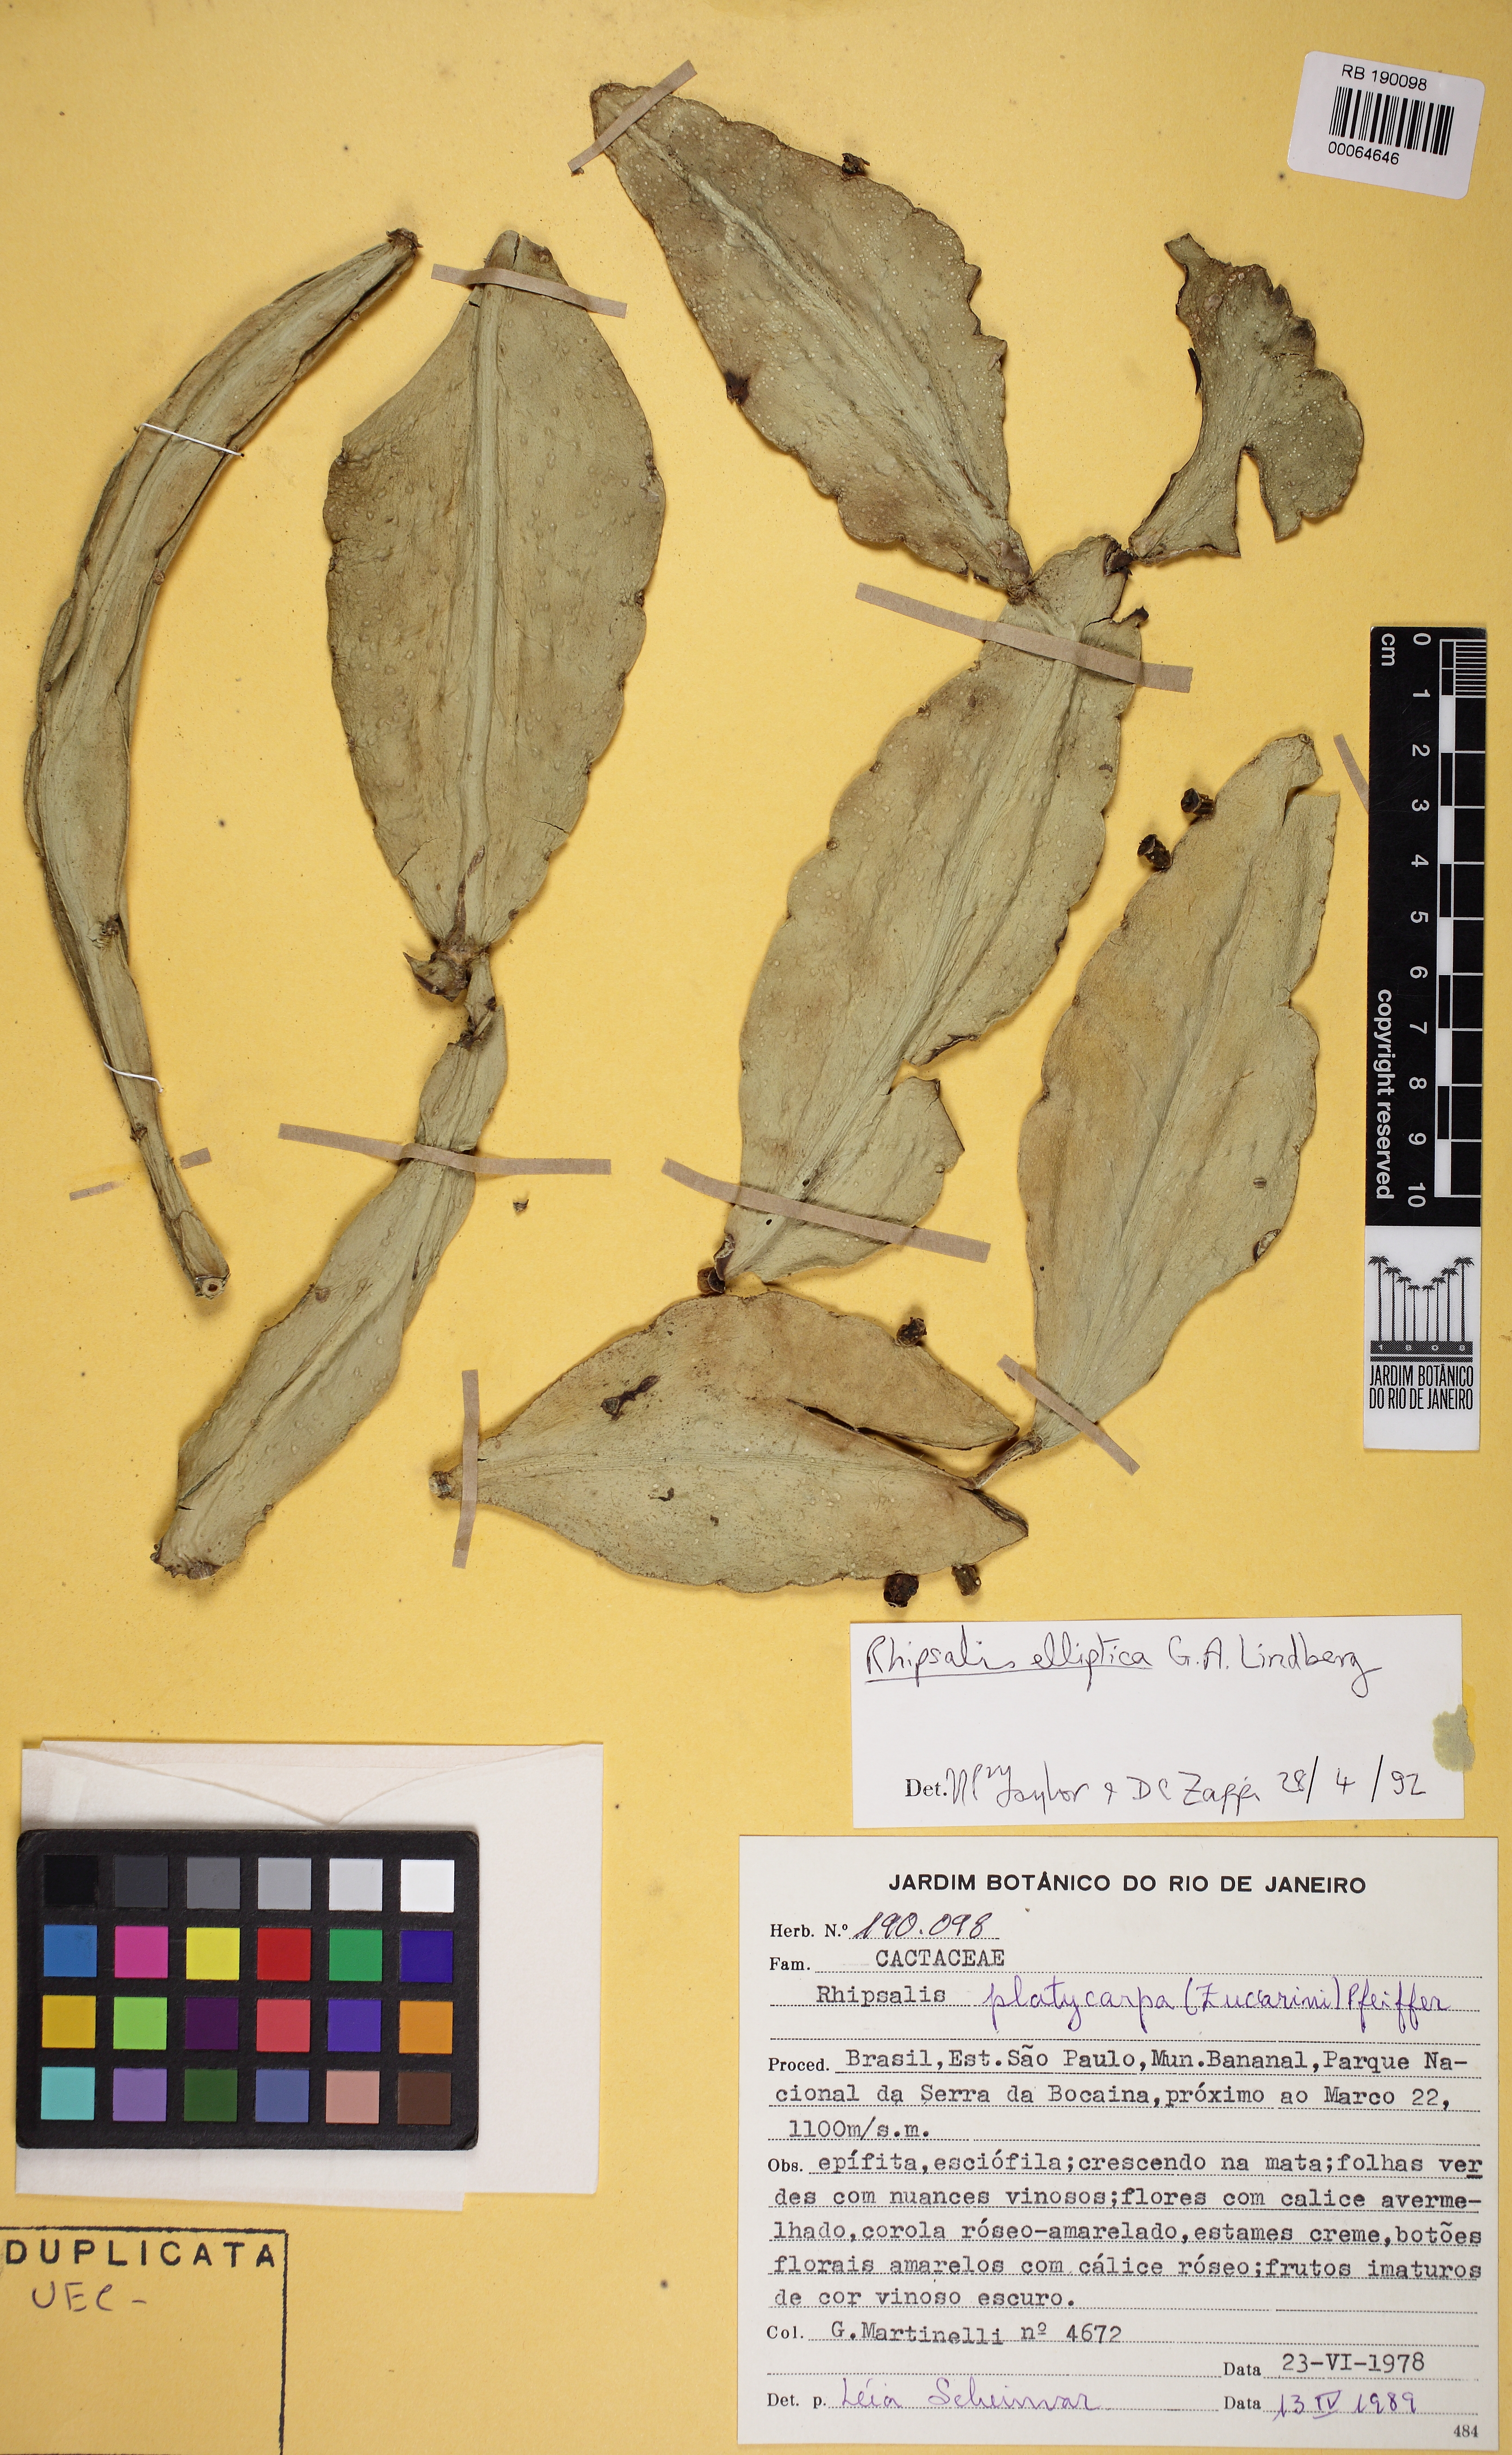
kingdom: Plantae
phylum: Tracheophyta
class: Magnoliopsida
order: Caryophyllales
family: Cactaceae
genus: Rhipsalis
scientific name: Rhipsalis elliptica
